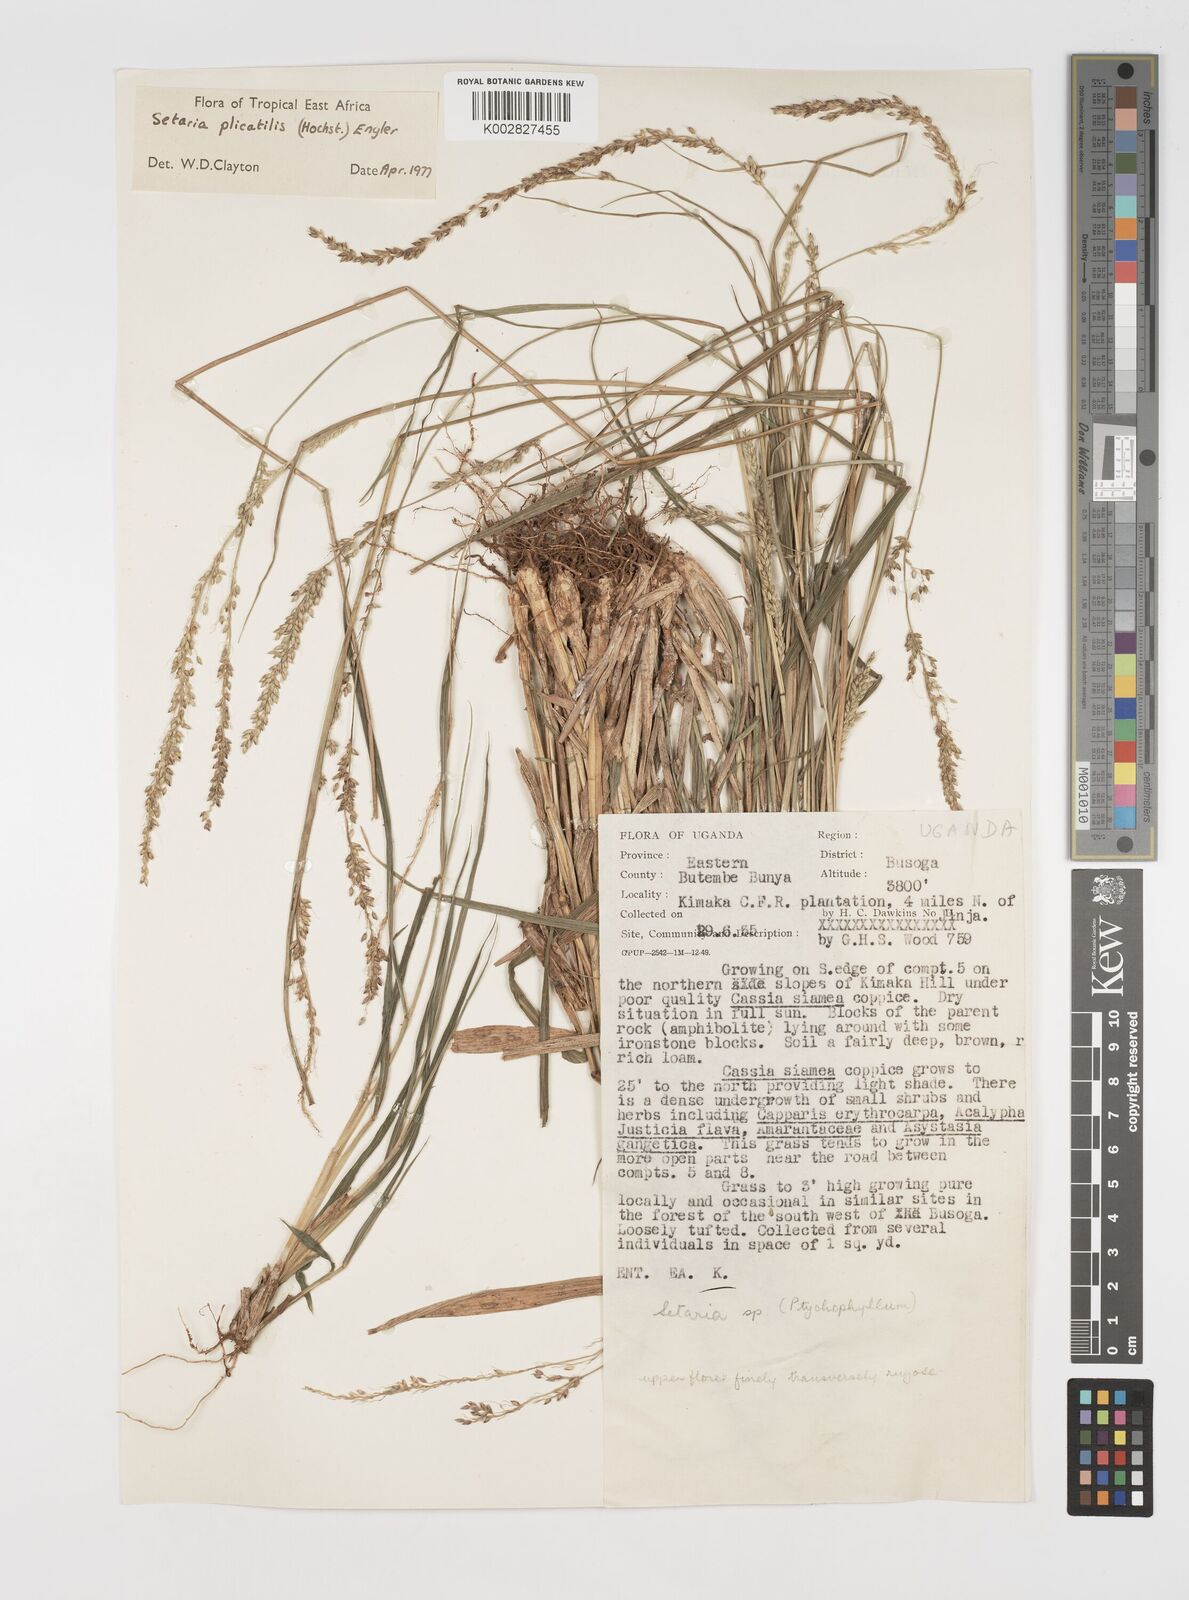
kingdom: Plantae
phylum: Tracheophyta
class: Liliopsida
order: Poales
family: Poaceae
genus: Setaria
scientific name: Setaria megaphylla
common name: Bigleaf bristlegrass
